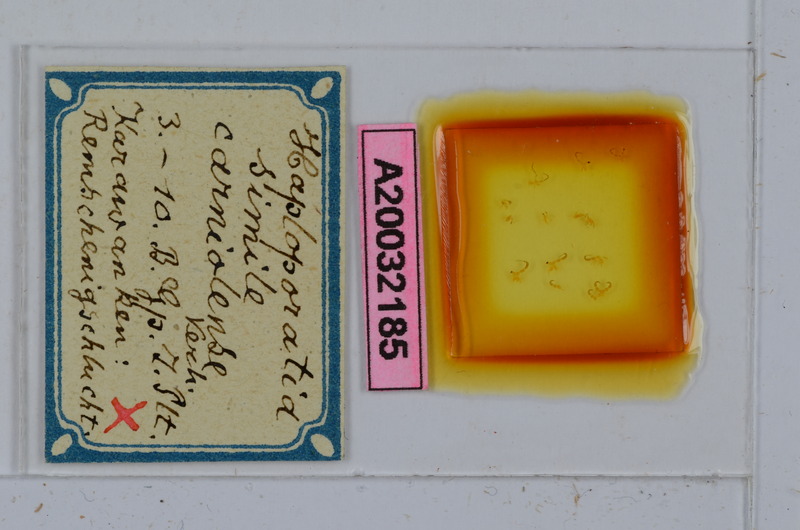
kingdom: Animalia
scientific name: Animalia
